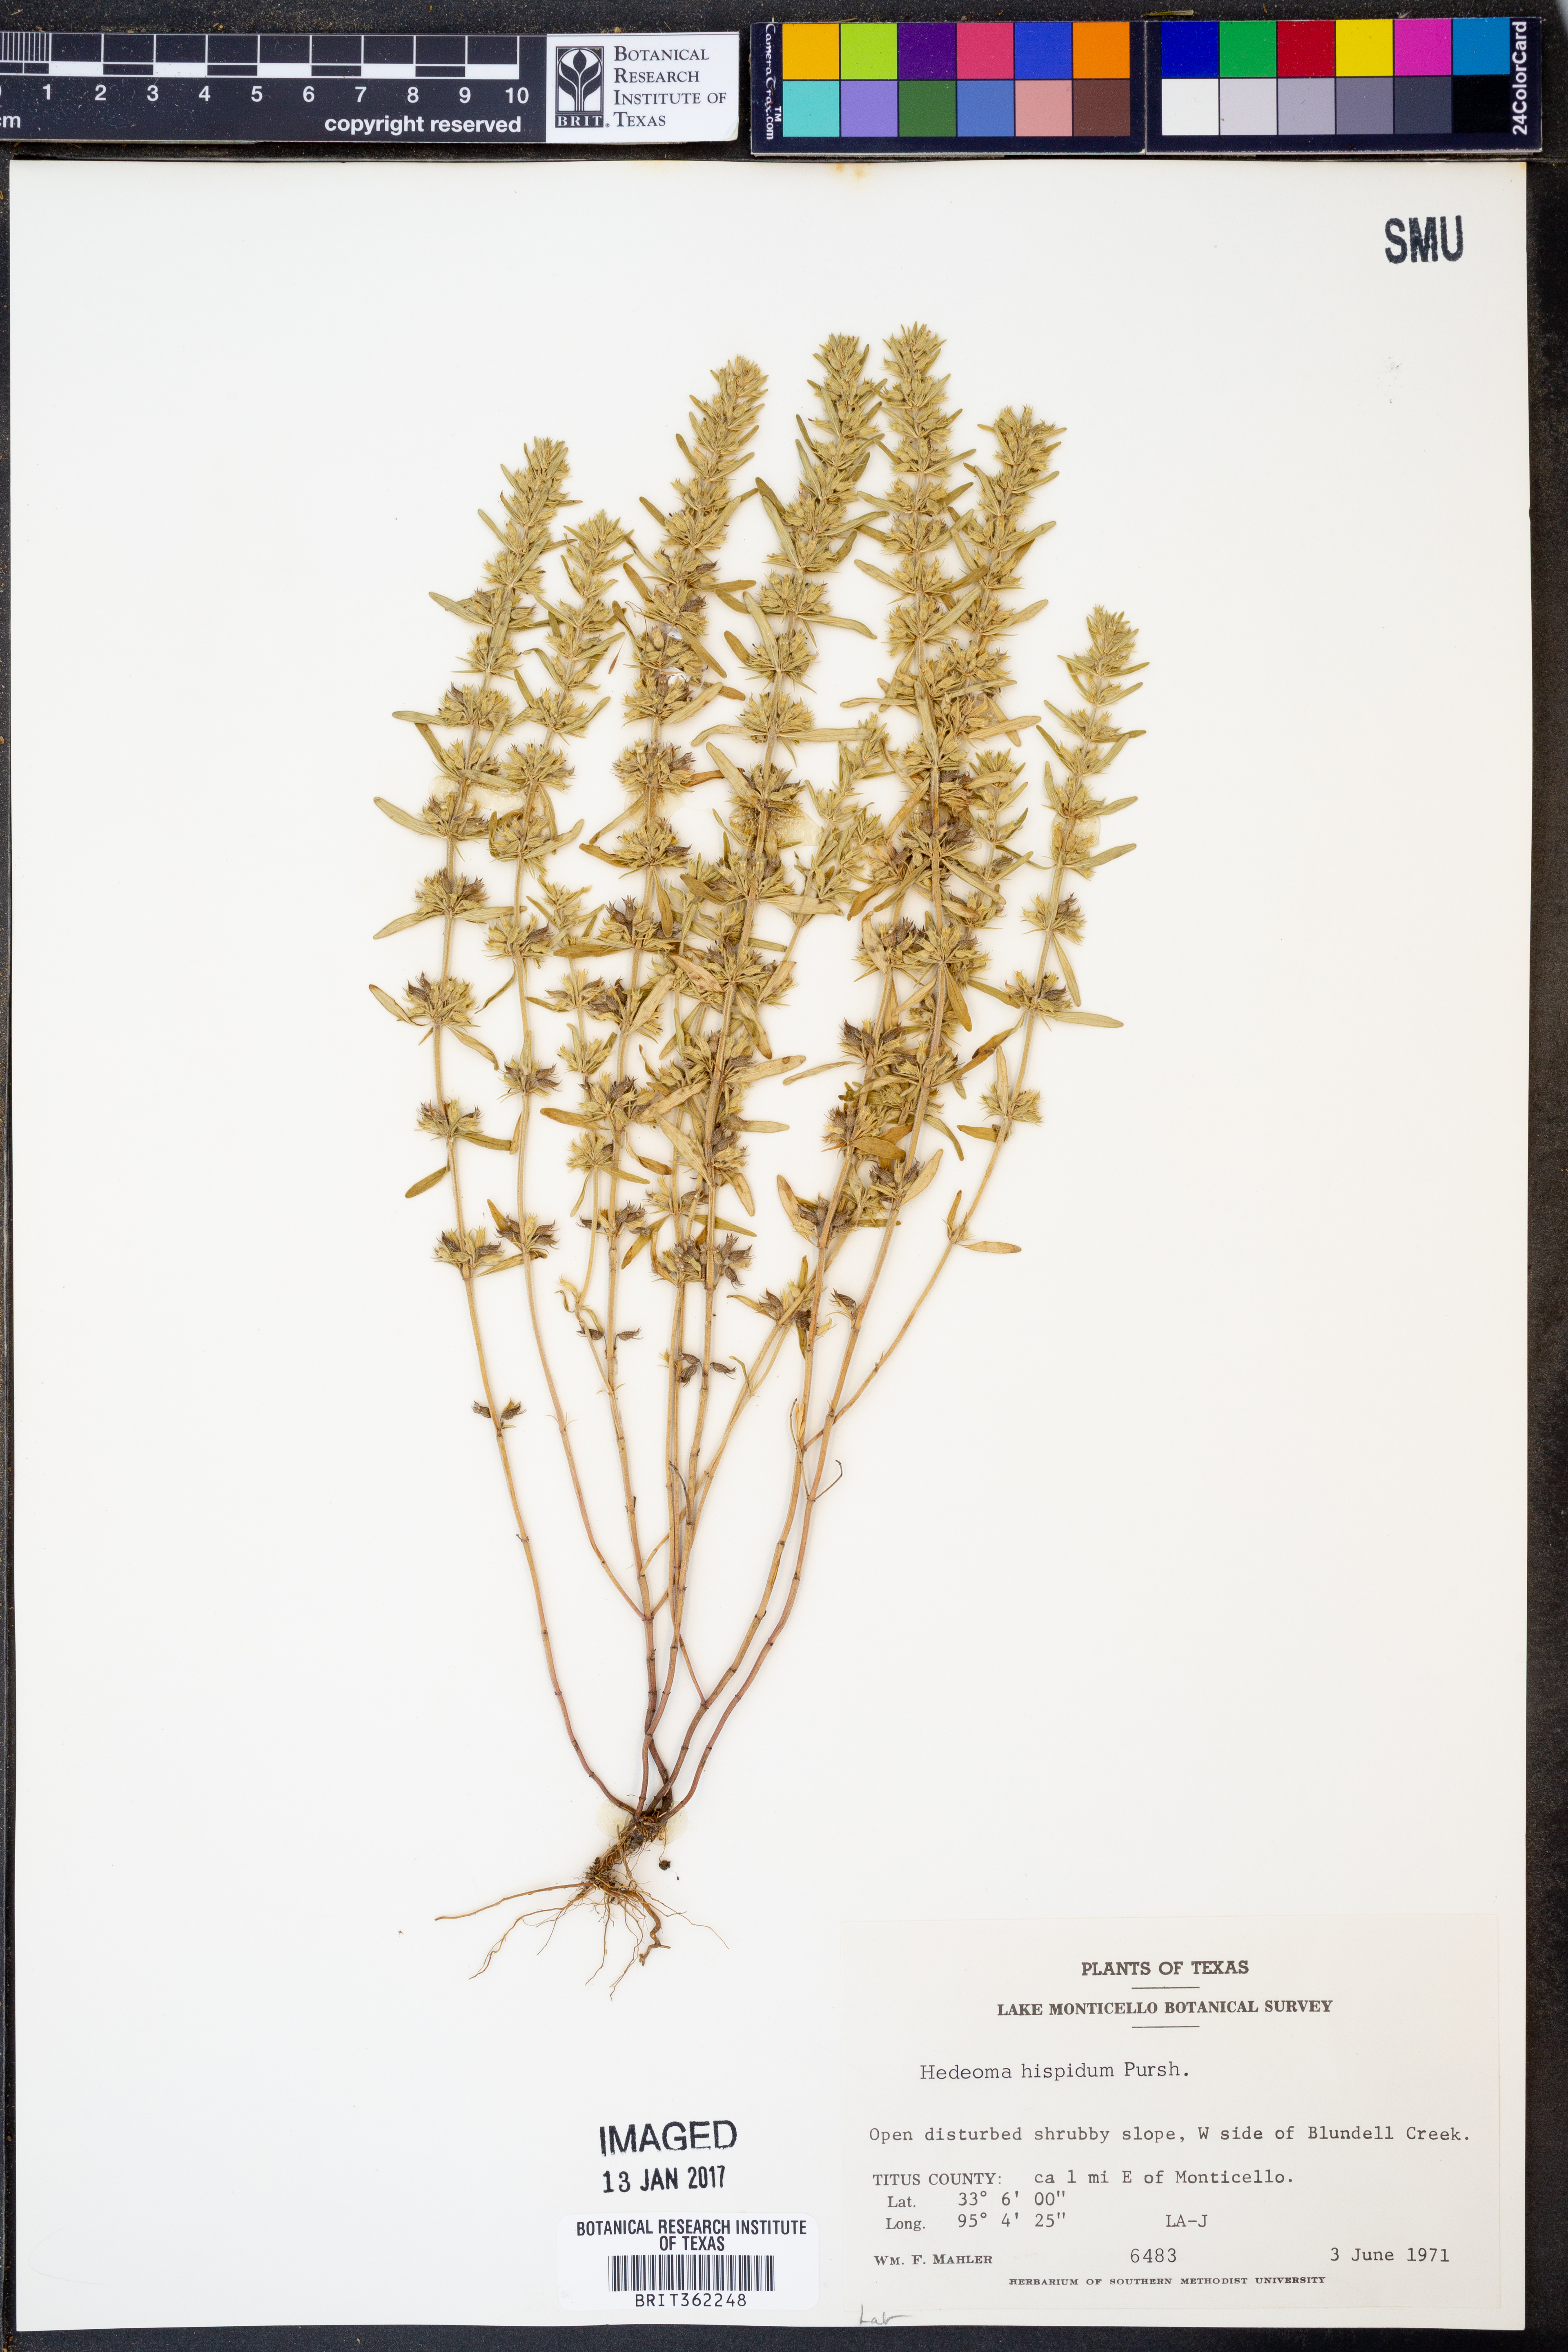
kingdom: Plantae
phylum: Tracheophyta
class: Magnoliopsida
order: Lamiales
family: Lamiaceae
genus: Hedeoma
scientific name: Hedeoma hispida
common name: Mock pennyroyal
